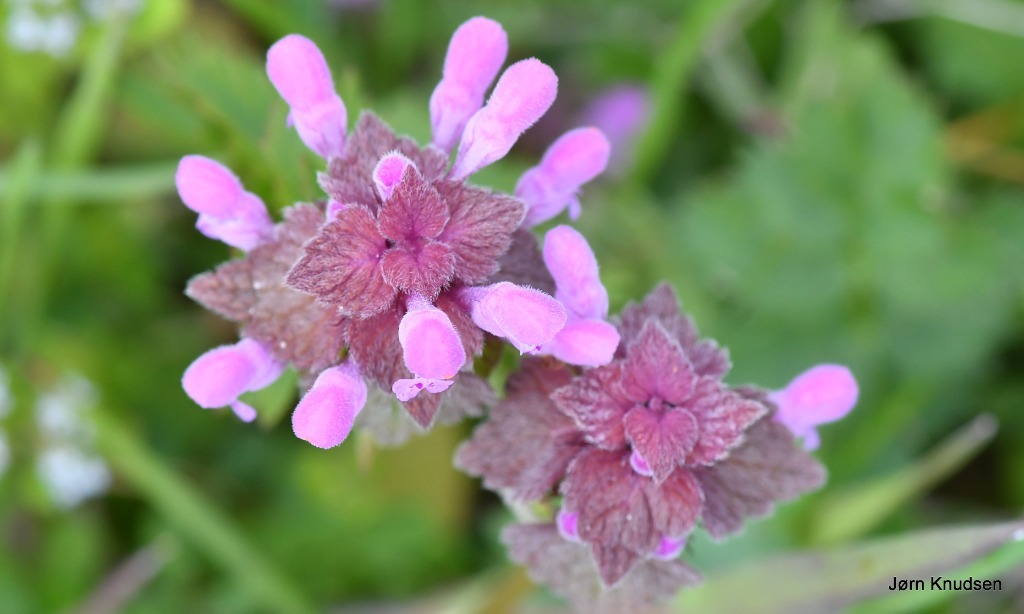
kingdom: Plantae
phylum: Tracheophyta
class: Magnoliopsida
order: Lamiales
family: Lamiaceae
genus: Lamium
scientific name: Lamium purpureum
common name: Rød tvetand
